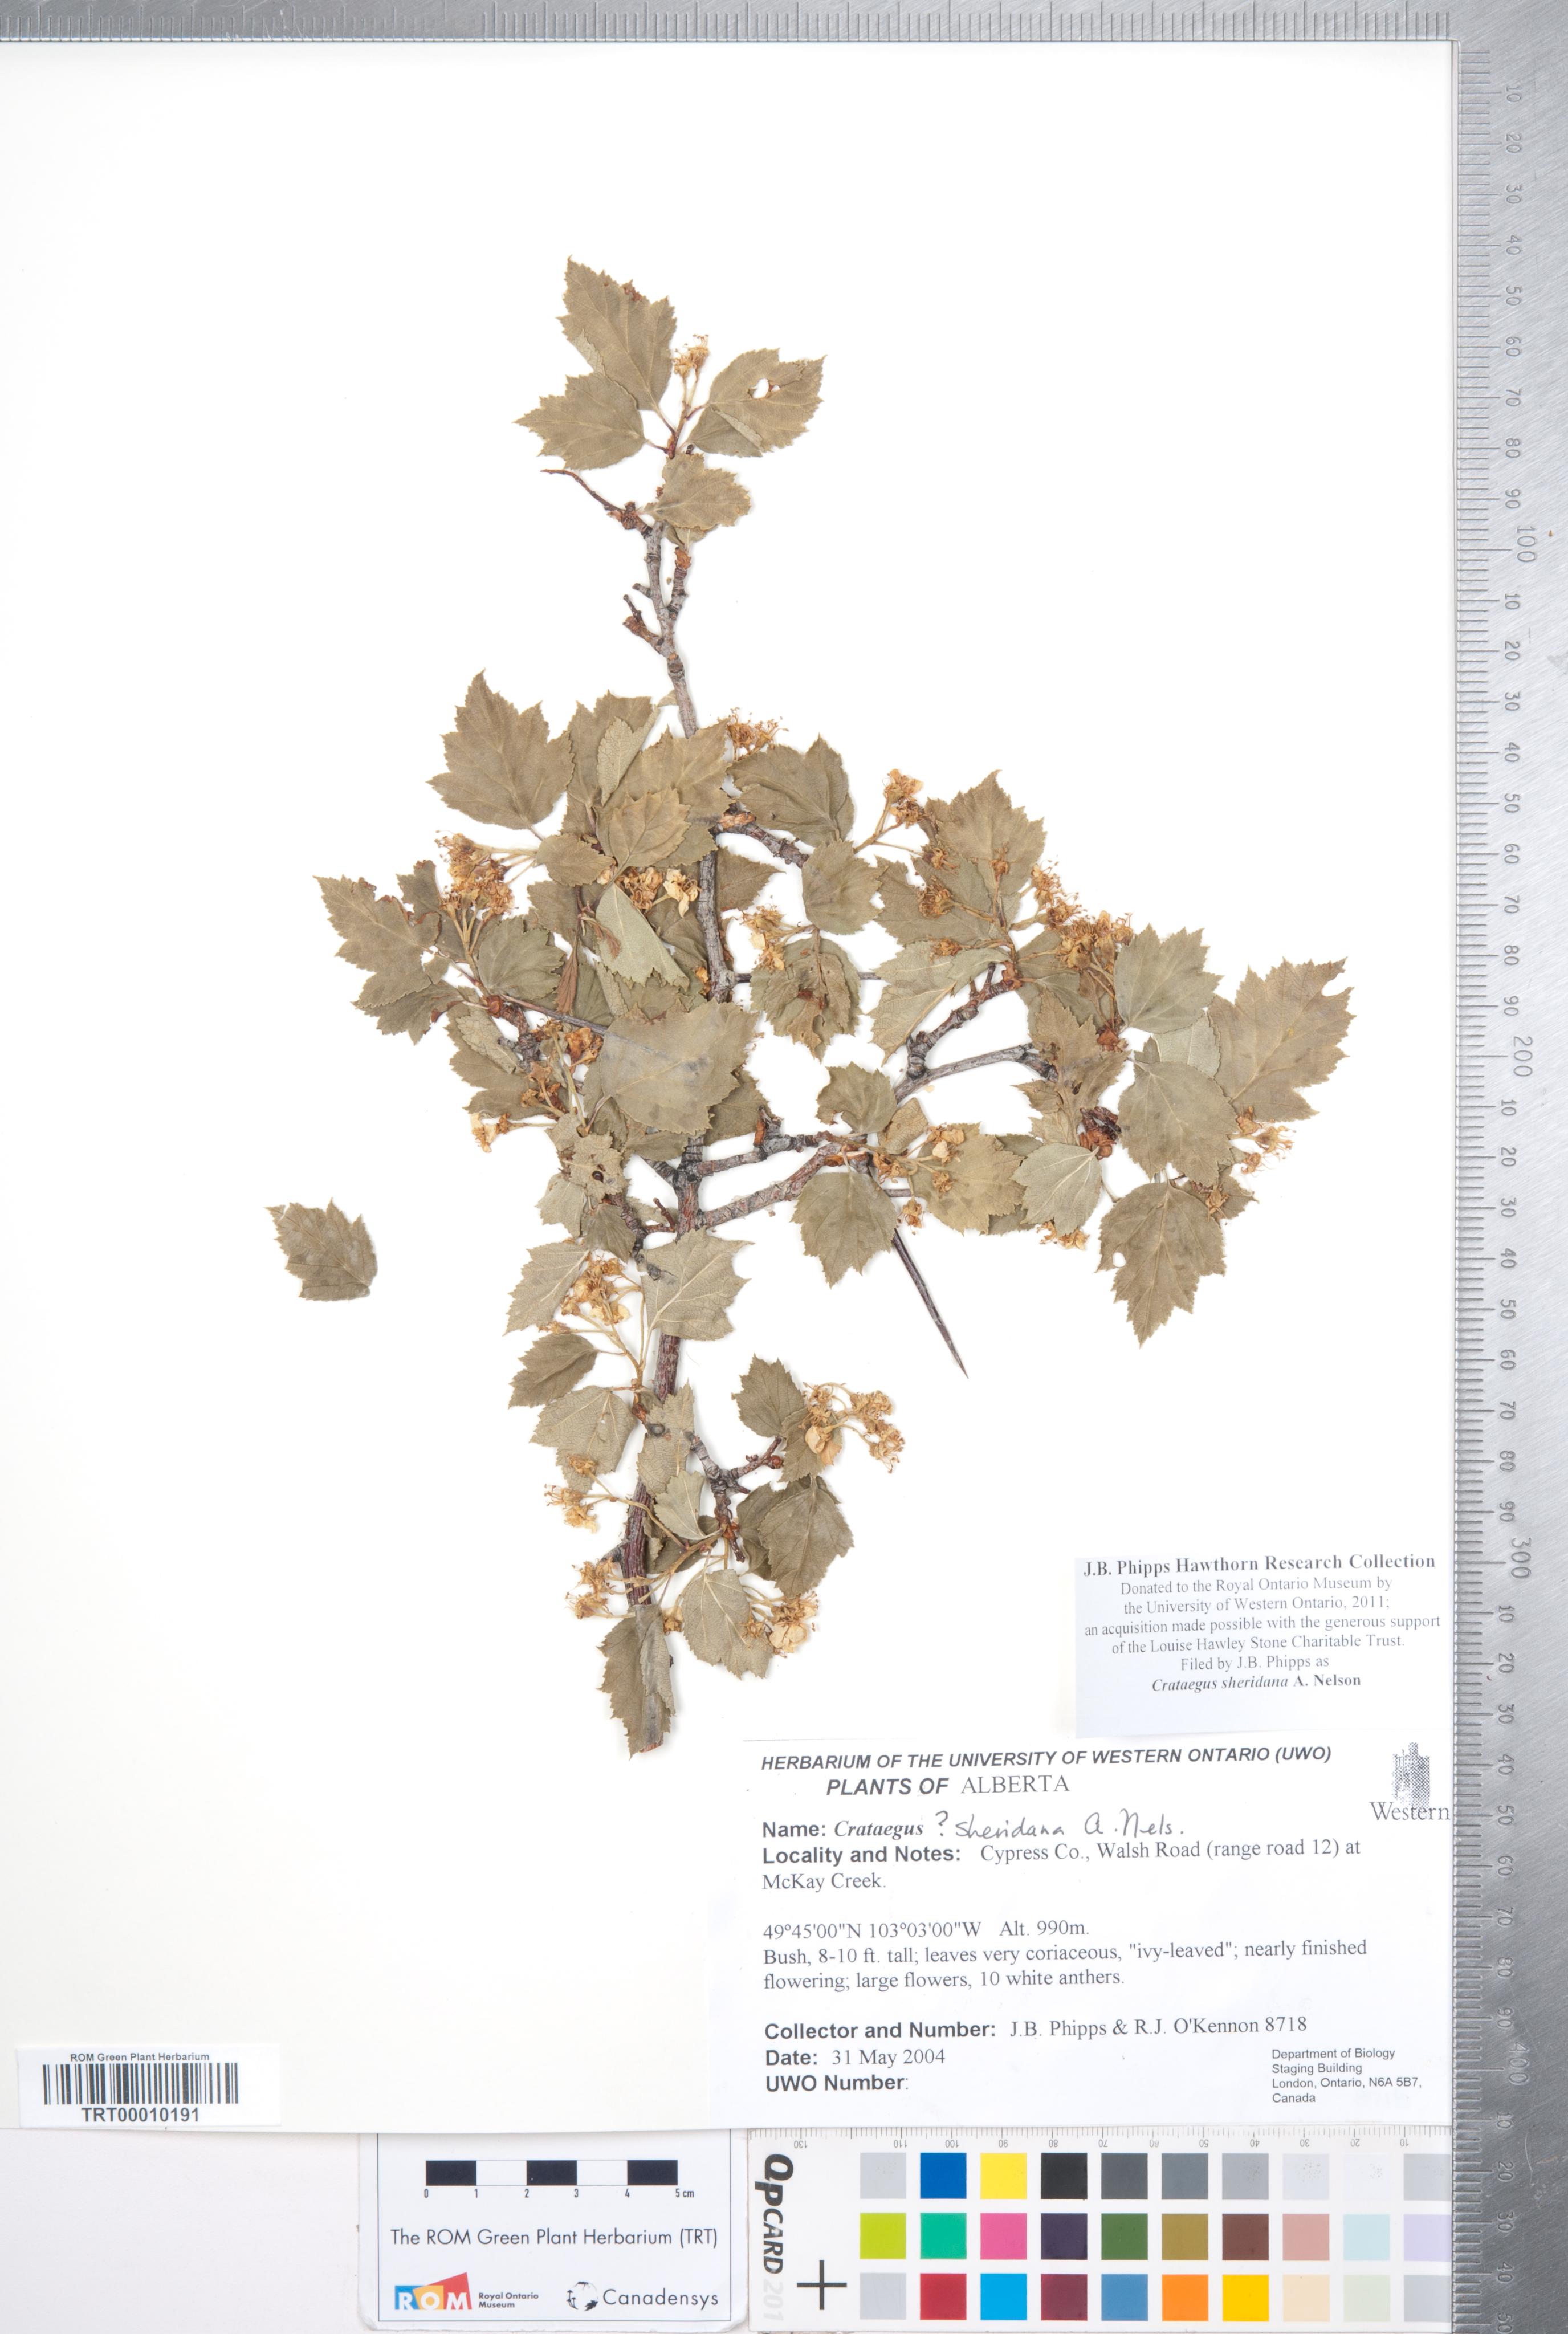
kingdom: Plantae
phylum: Tracheophyta
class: Magnoliopsida
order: Rosales
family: Rosaceae
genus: Crataegus
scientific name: Crataegus chrysocarpa
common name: Fire-berry hawthorn
